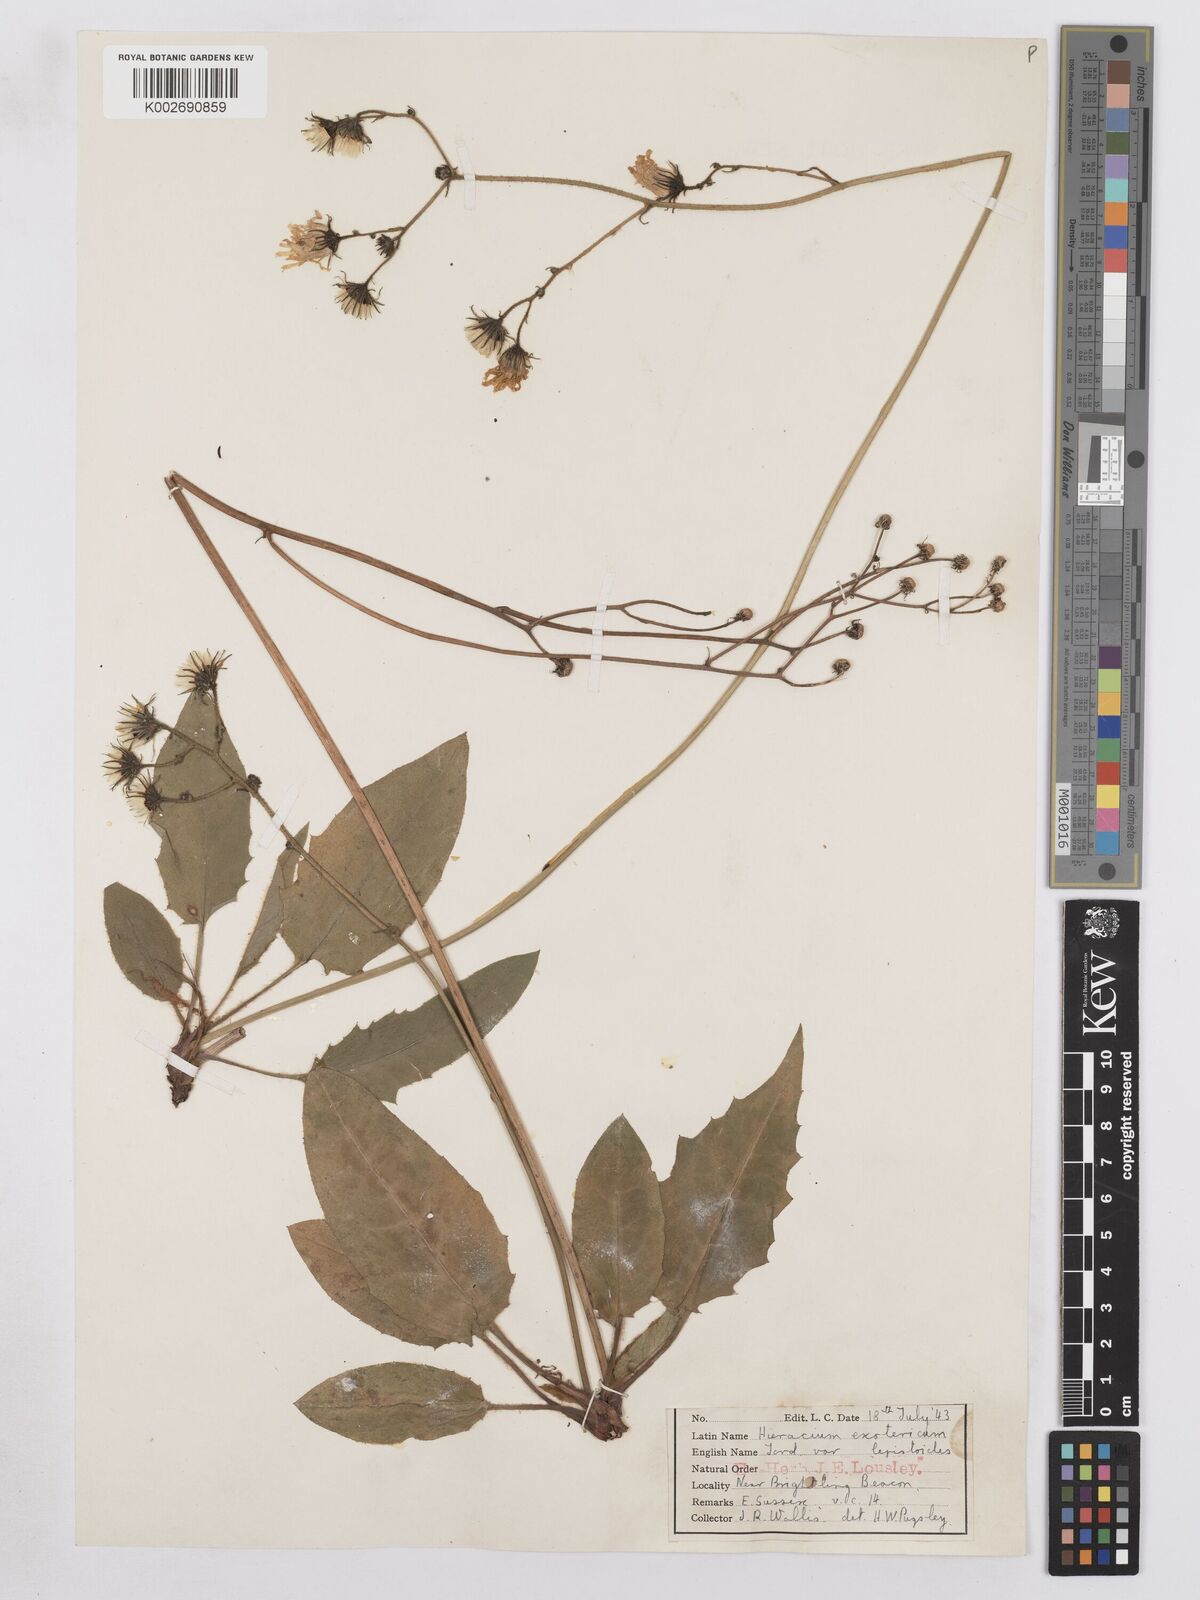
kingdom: Plantae
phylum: Tracheophyta
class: Magnoliopsida
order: Asterales
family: Asteraceae
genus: Hieracium
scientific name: Hieracium murorum
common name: Wall hawkweed
